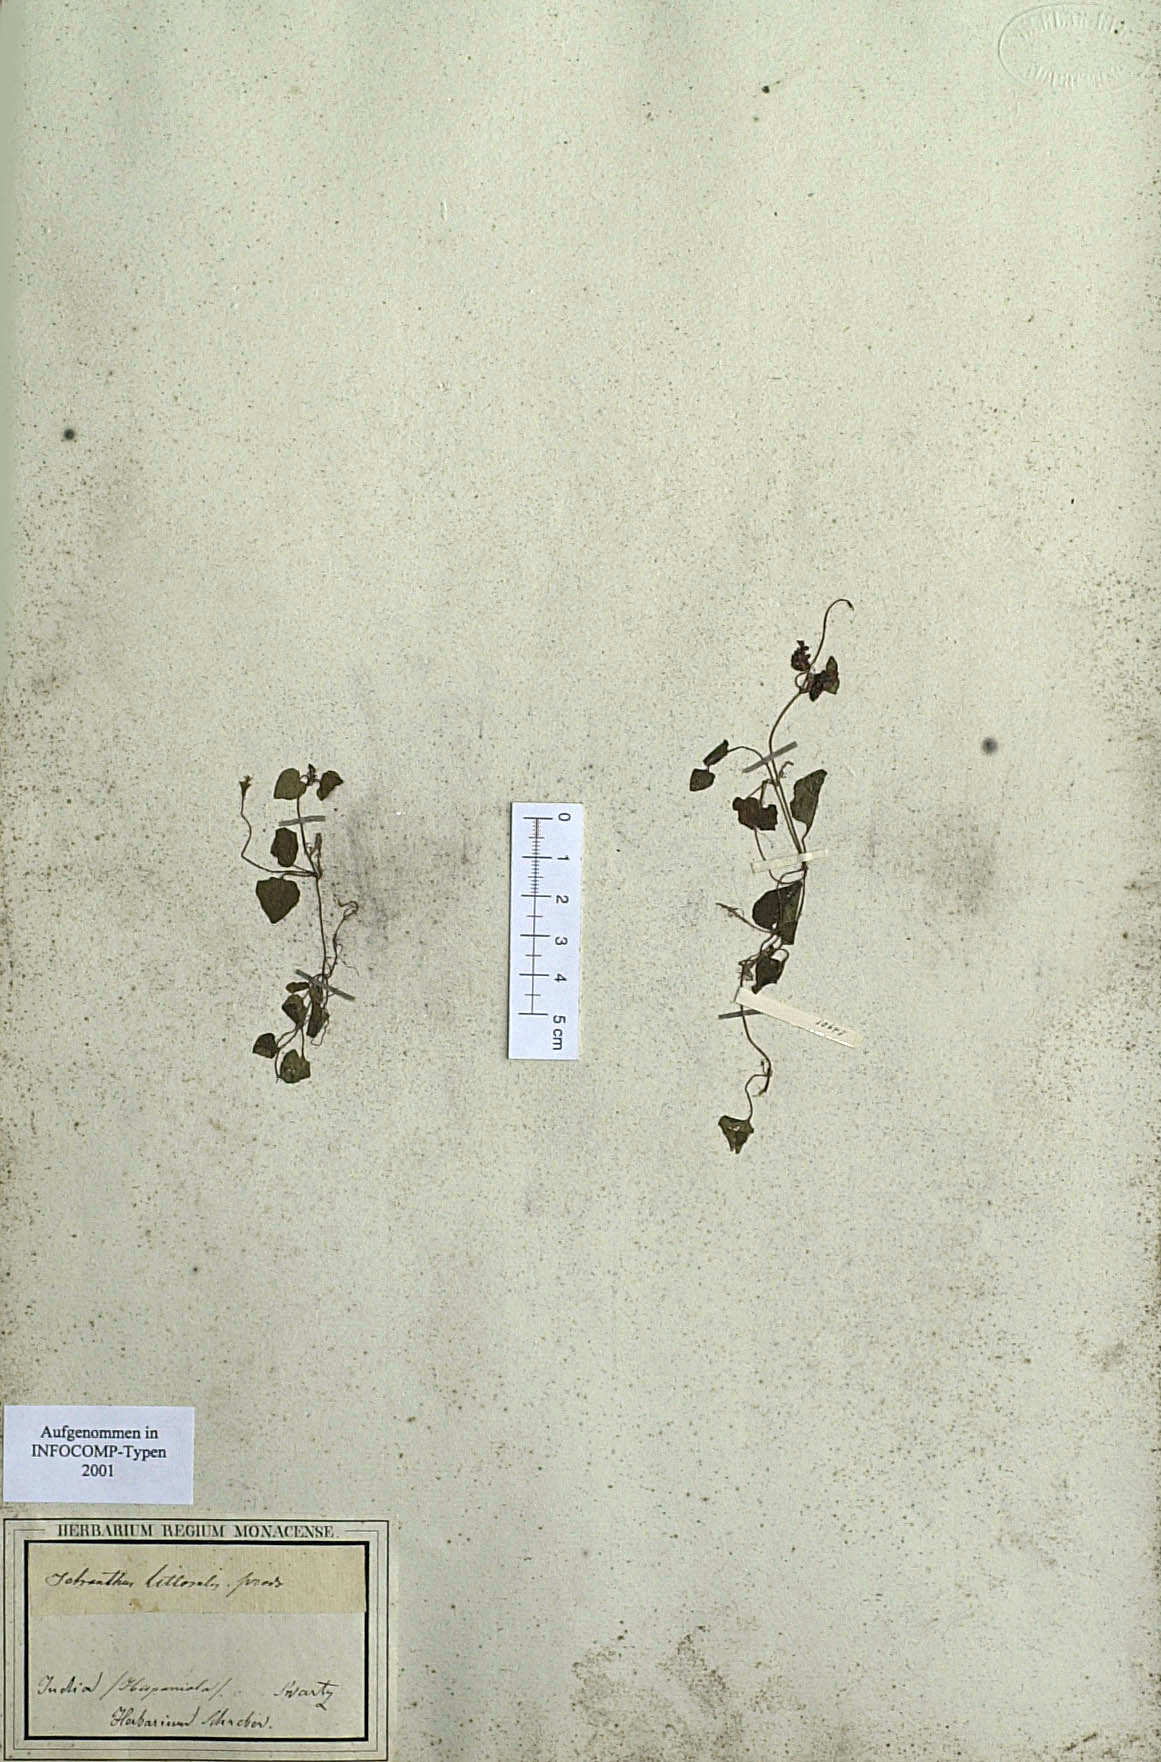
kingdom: Plantae
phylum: Tracheophyta
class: Magnoliopsida
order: Asterales
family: Asteraceae
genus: Tetranthus
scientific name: Tetranthus littoralis
